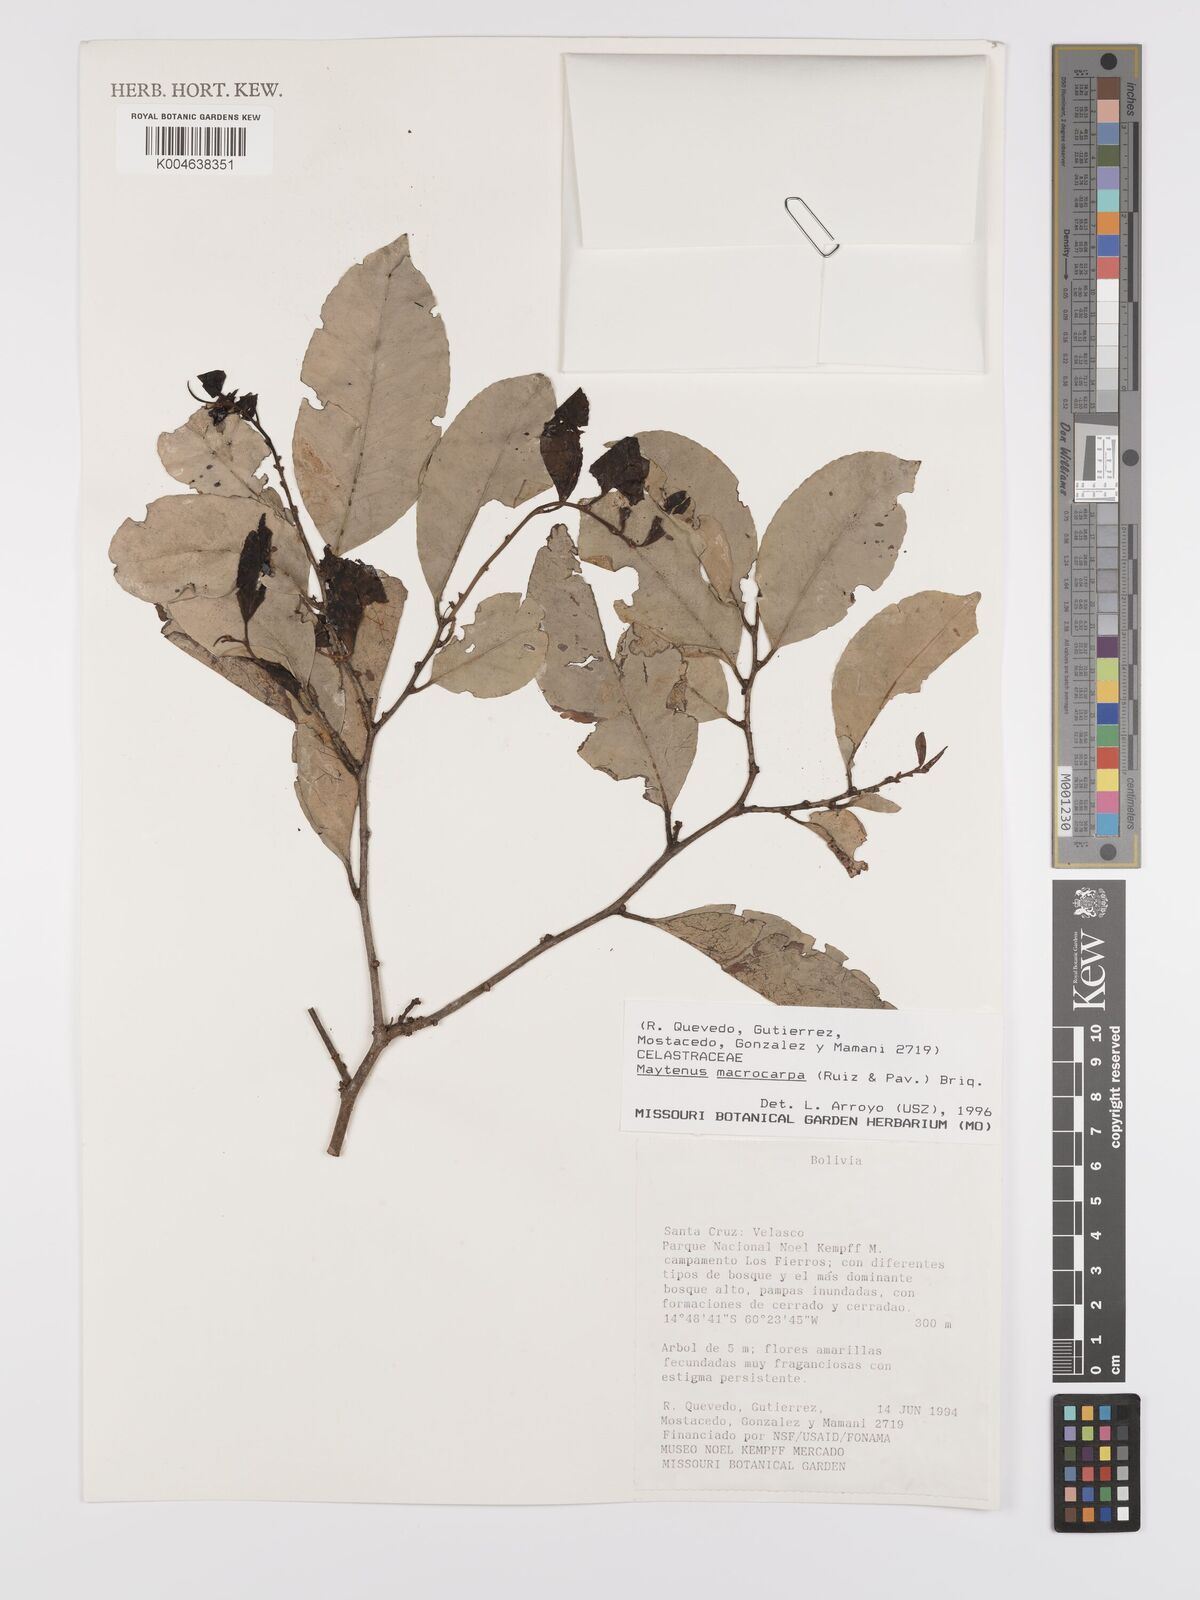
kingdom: Plantae
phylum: Tracheophyta
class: Magnoliopsida
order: Celastrales
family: Celastraceae
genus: Monteverdia
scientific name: Monteverdia macrocarpa
